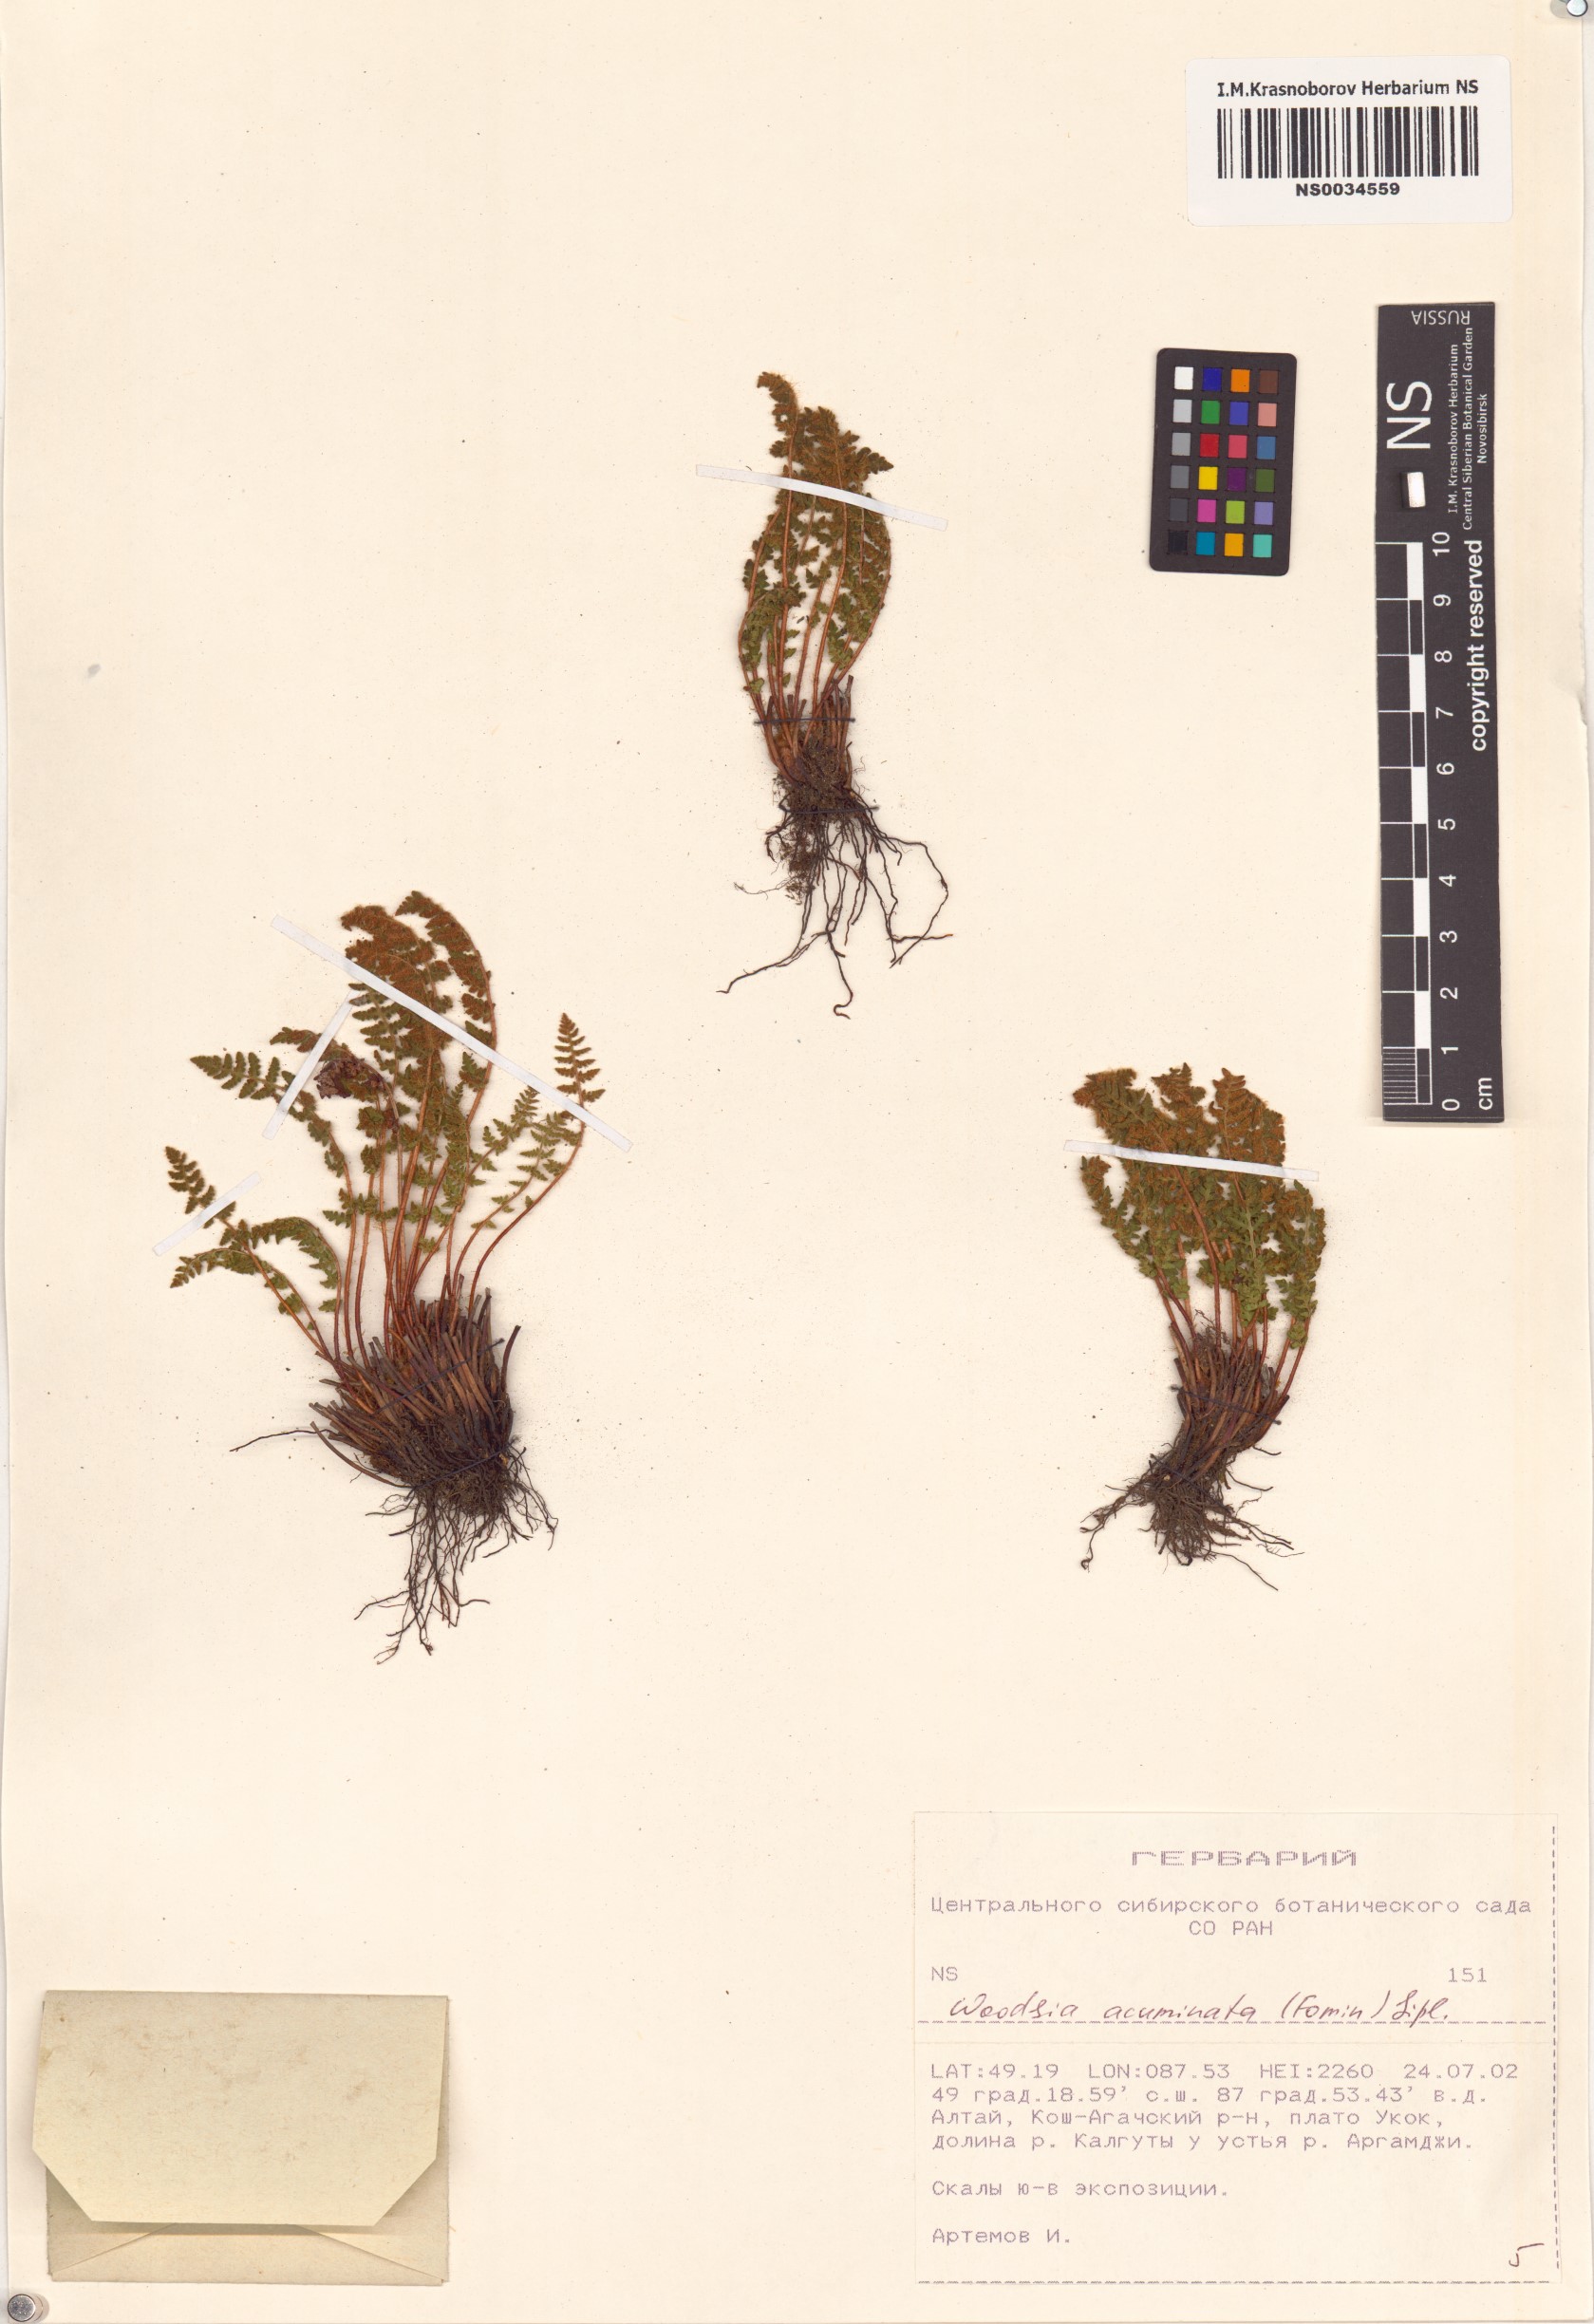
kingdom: Plantae
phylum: Tracheophyta
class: Polypodiopsida
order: Polypodiales
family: Woodsiaceae
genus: Woodsia
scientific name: Woodsia ilvensis
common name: Fragrant woodsia
